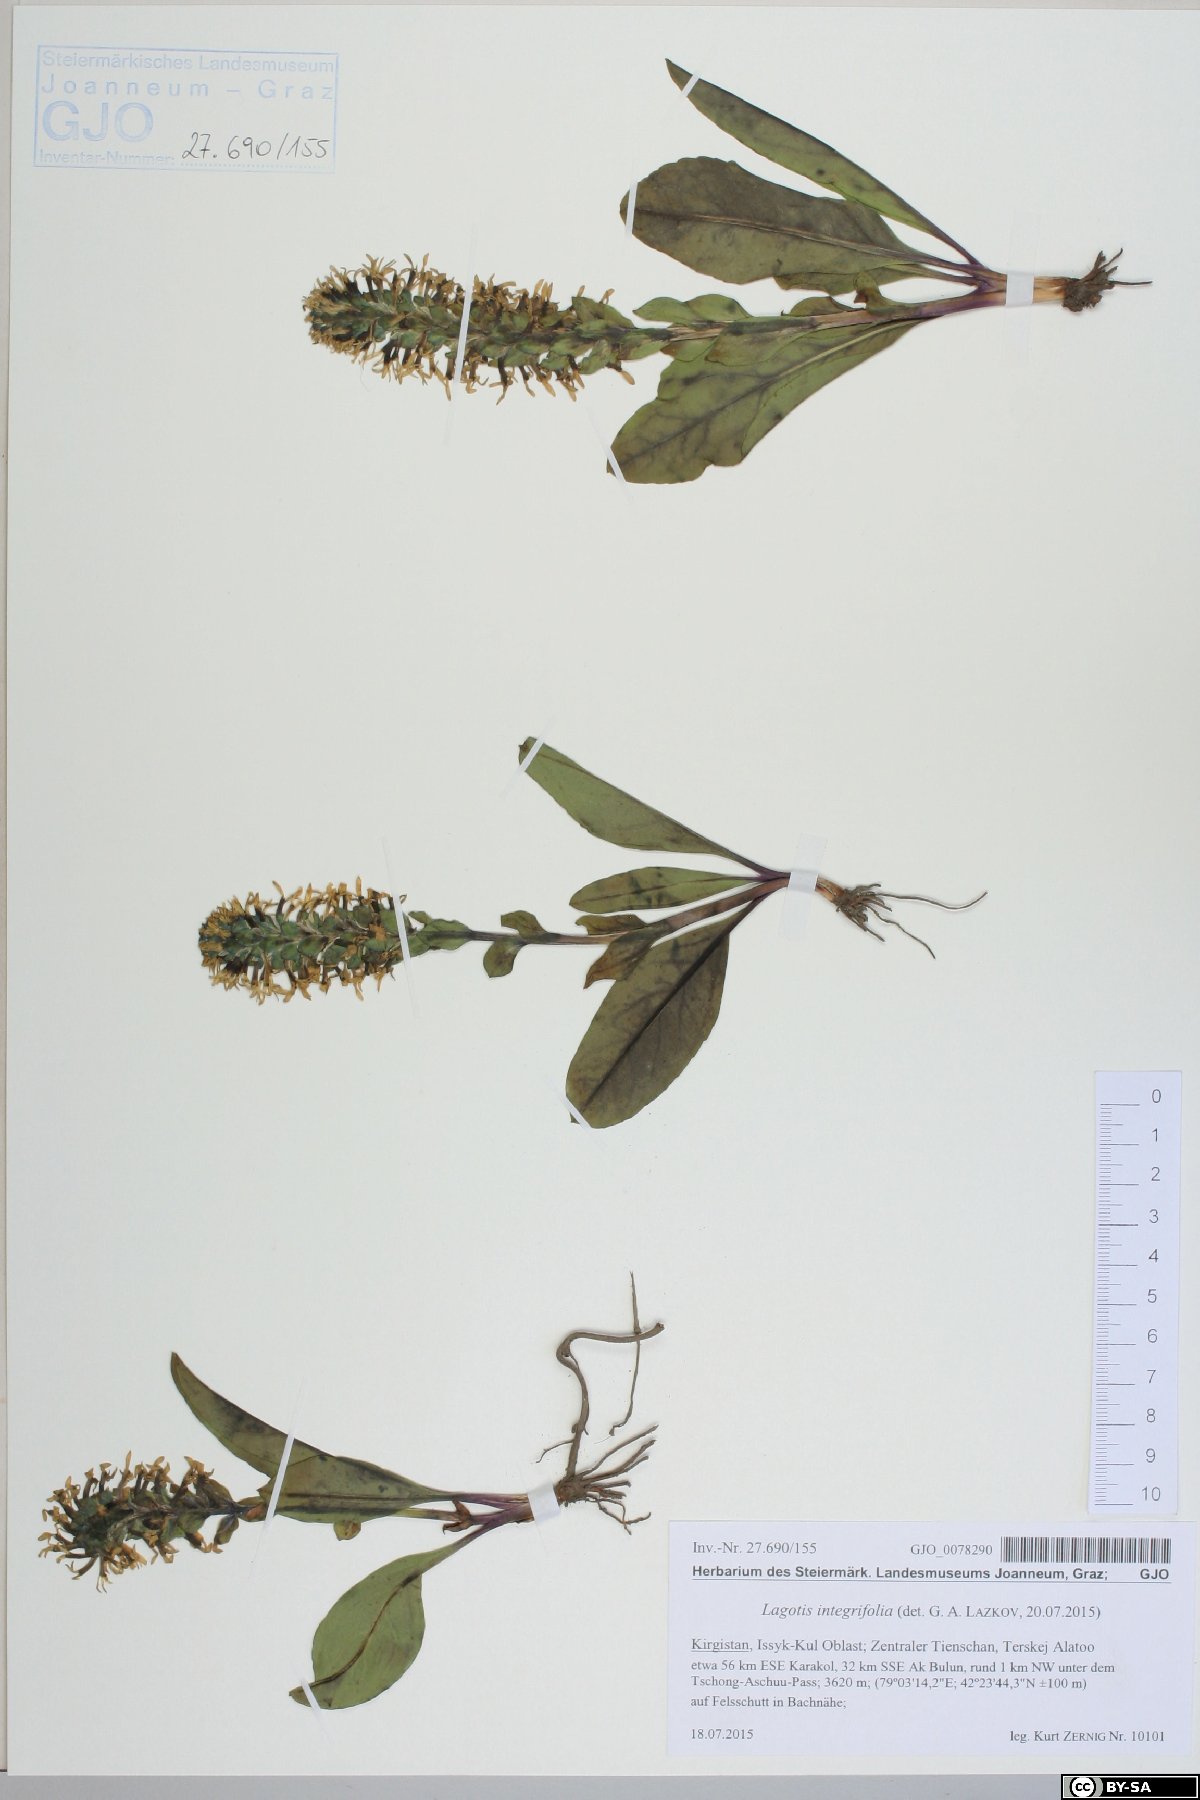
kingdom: Plantae
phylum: Tracheophyta
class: Magnoliopsida
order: Lamiales
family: Plantaginaceae
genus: Lagotis
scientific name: Lagotis integrifolia
